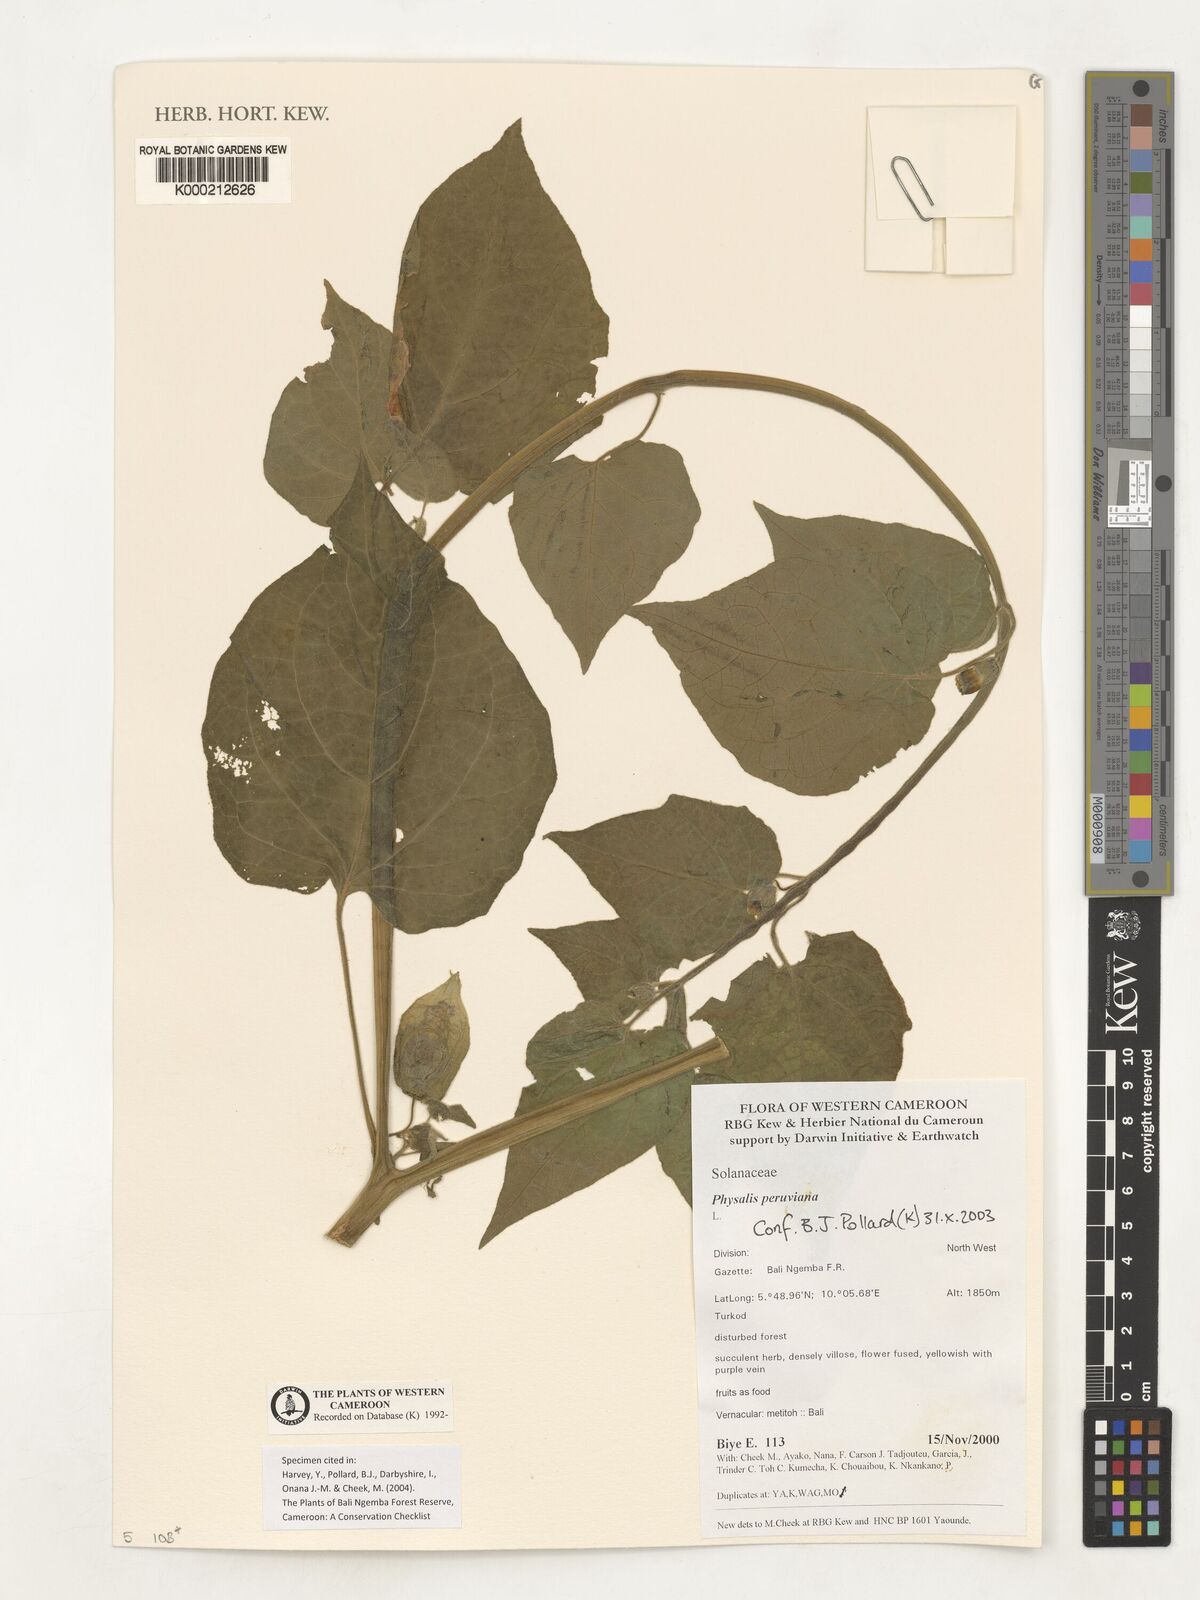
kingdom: Plantae
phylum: Tracheophyta
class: Magnoliopsida
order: Solanales
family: Solanaceae
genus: Physalis
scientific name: Physalis peruviana
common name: Cape-gooseberry
